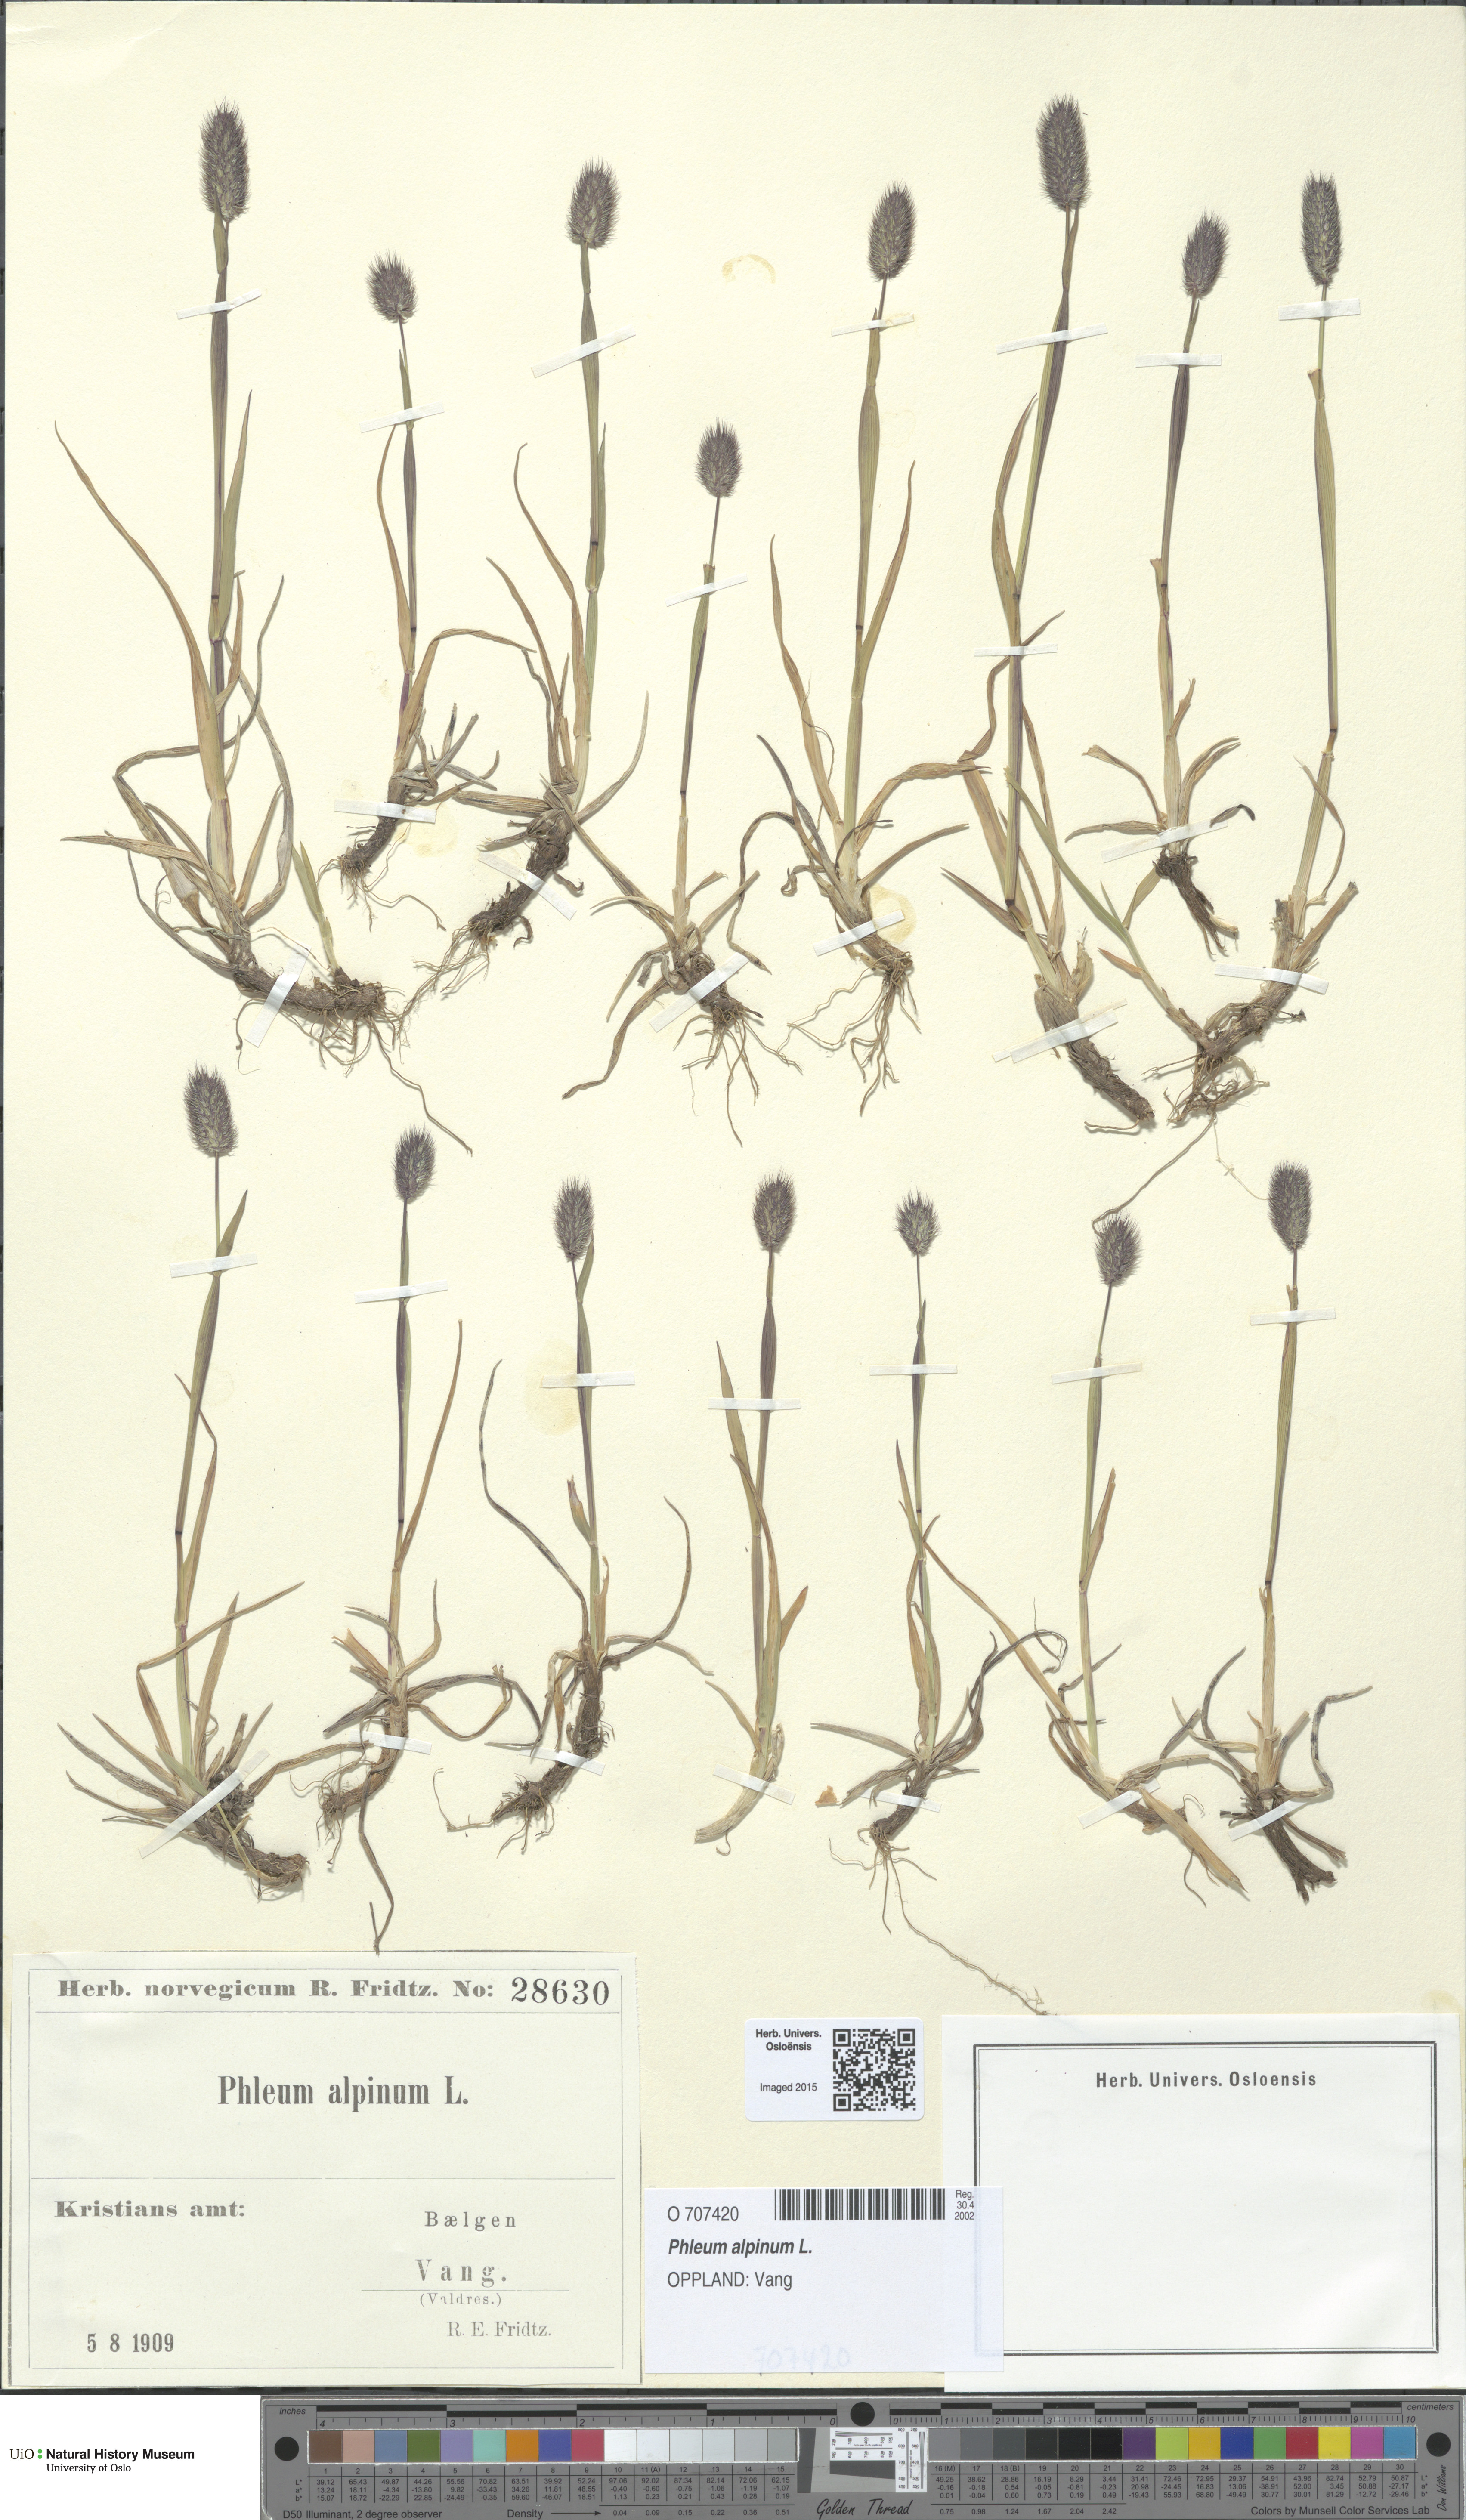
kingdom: Plantae
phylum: Tracheophyta
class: Liliopsida
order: Poales
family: Poaceae
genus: Phleum
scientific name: Phleum alpinum
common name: Alpine cat's-tail
